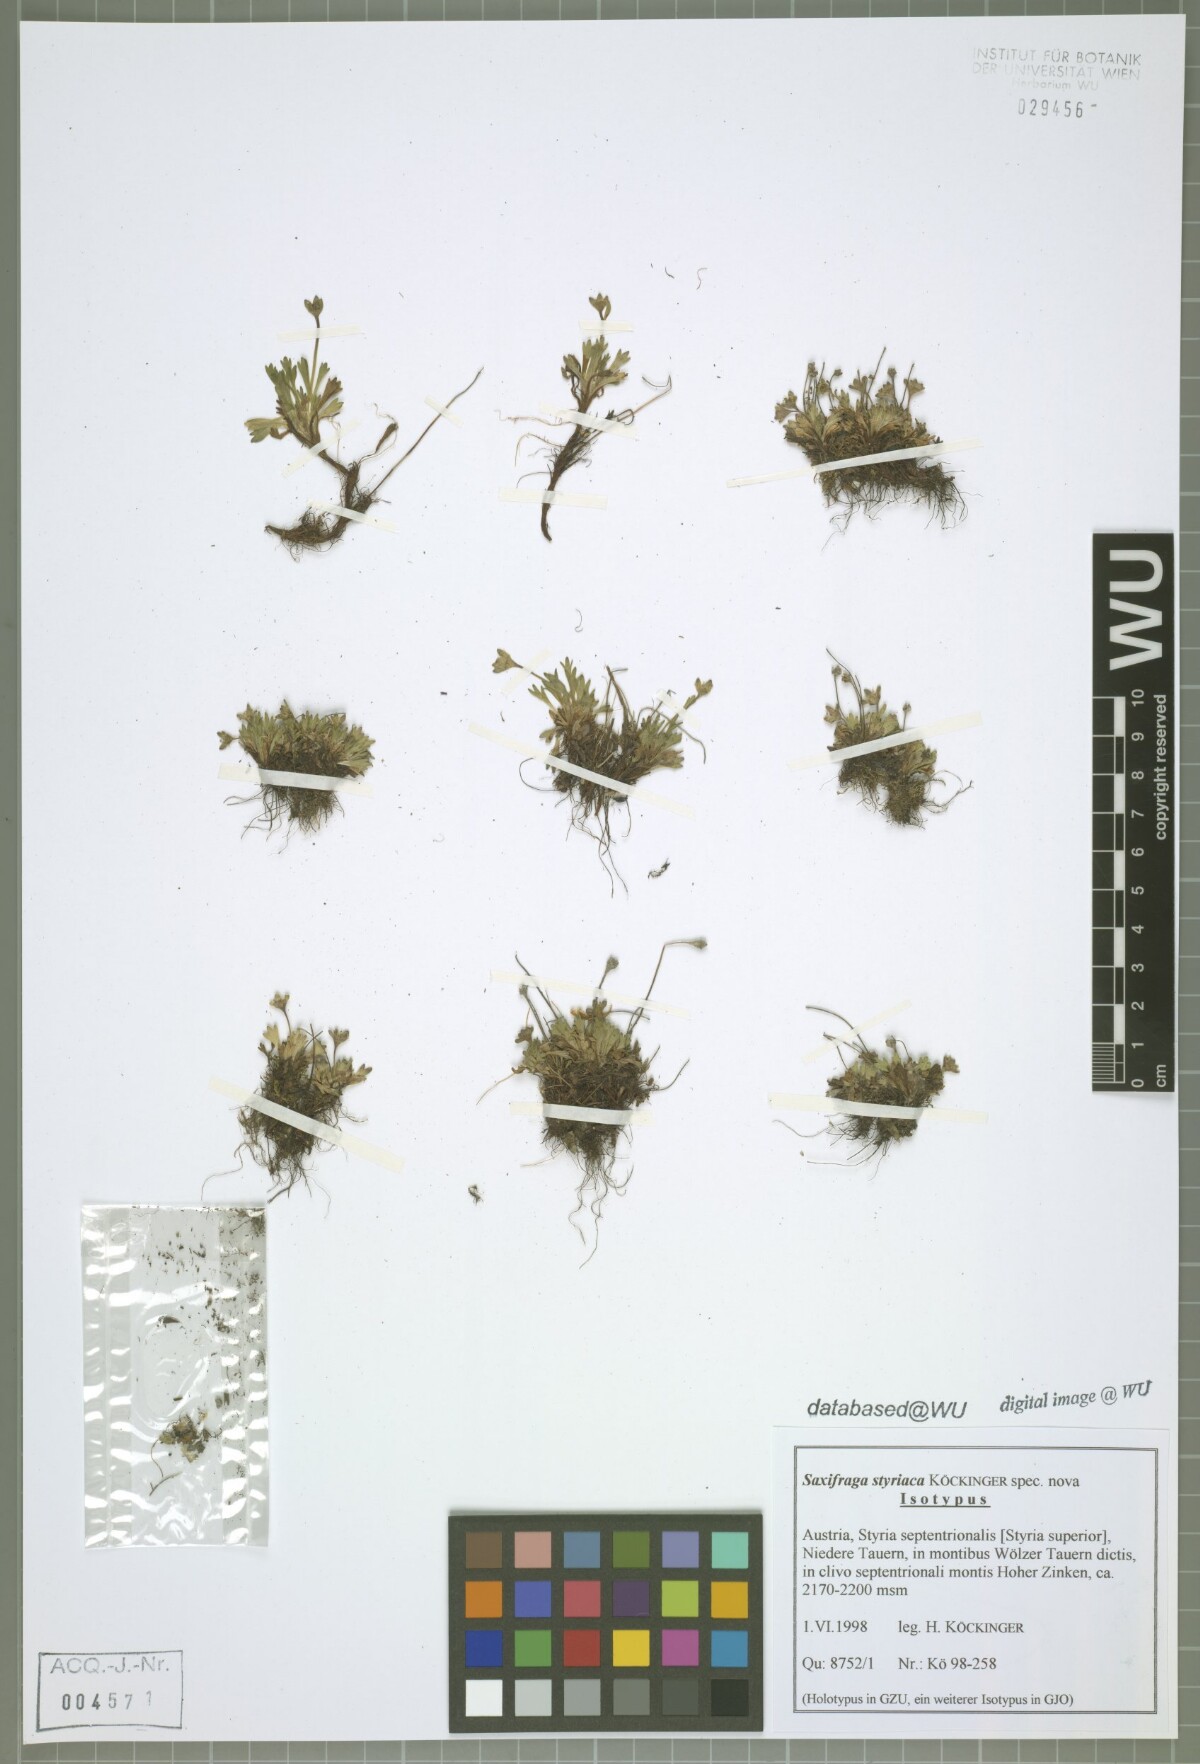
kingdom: Plantae
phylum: Tracheophyta
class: Magnoliopsida
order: Saxifragales
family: Saxifragaceae
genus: Saxifraga
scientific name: Saxifraga styriaca
